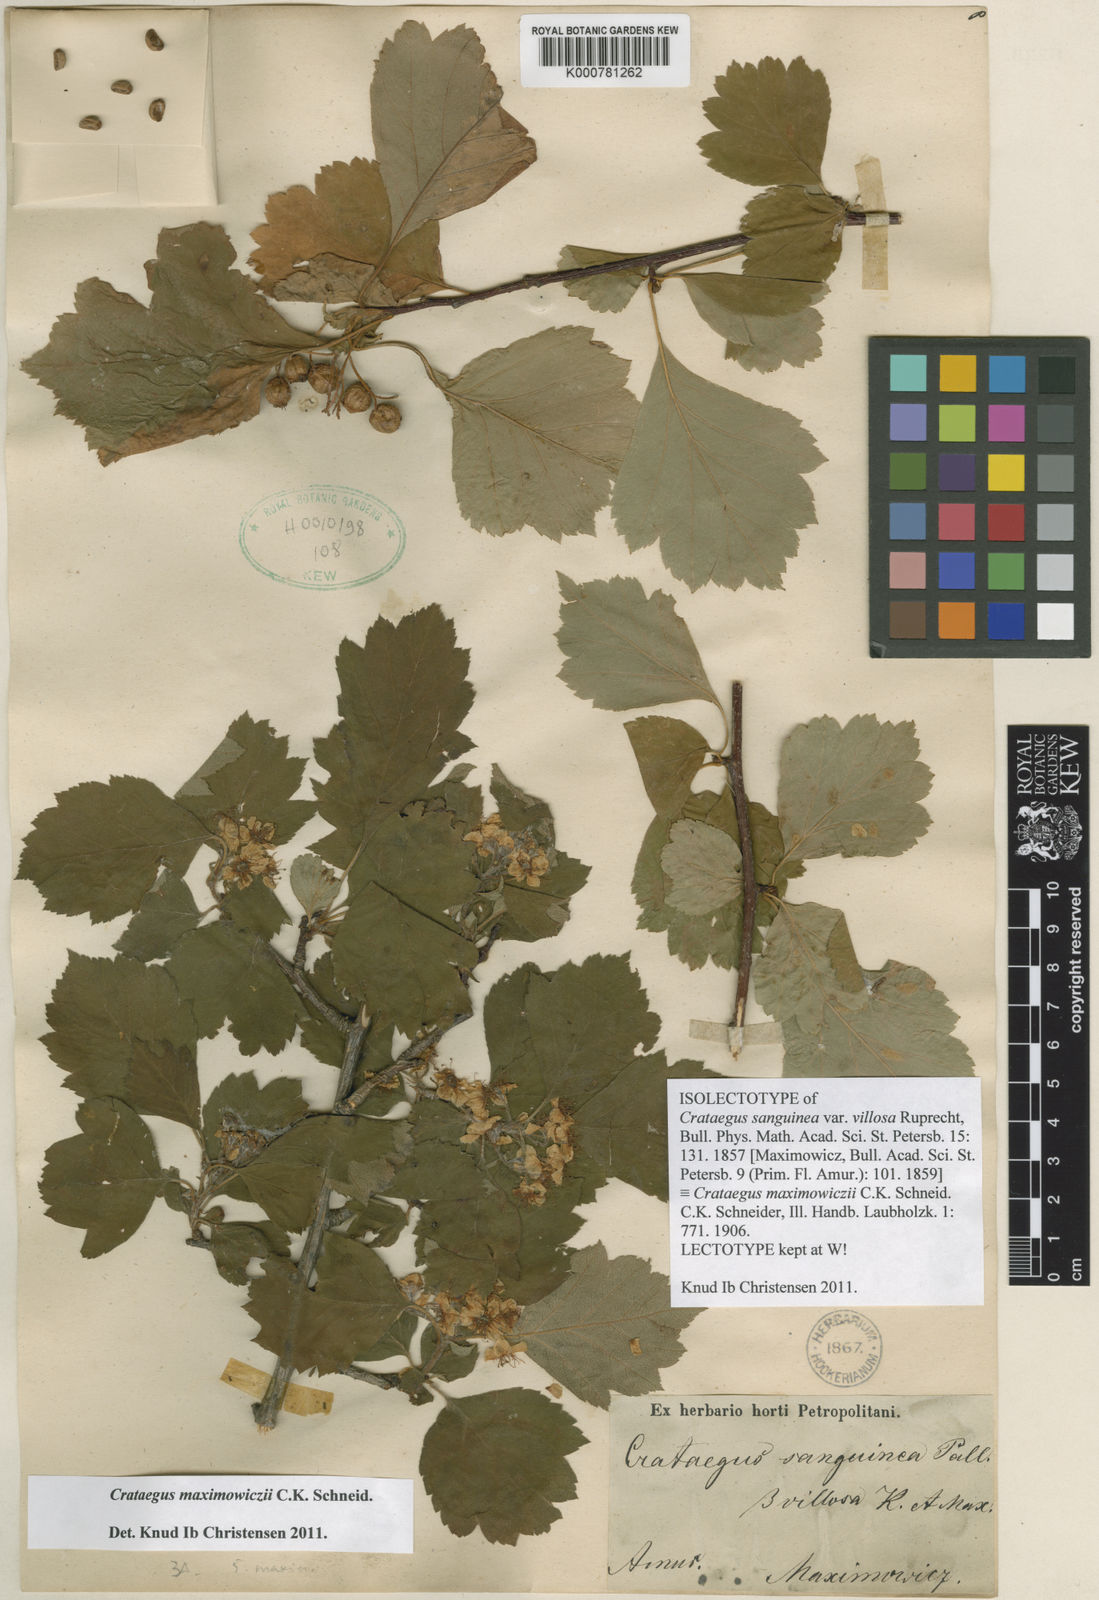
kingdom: Plantae
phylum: Tracheophyta
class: Magnoliopsida
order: Rosales
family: Rosaceae
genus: Crataegus
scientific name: Crataegus maximowiczii
